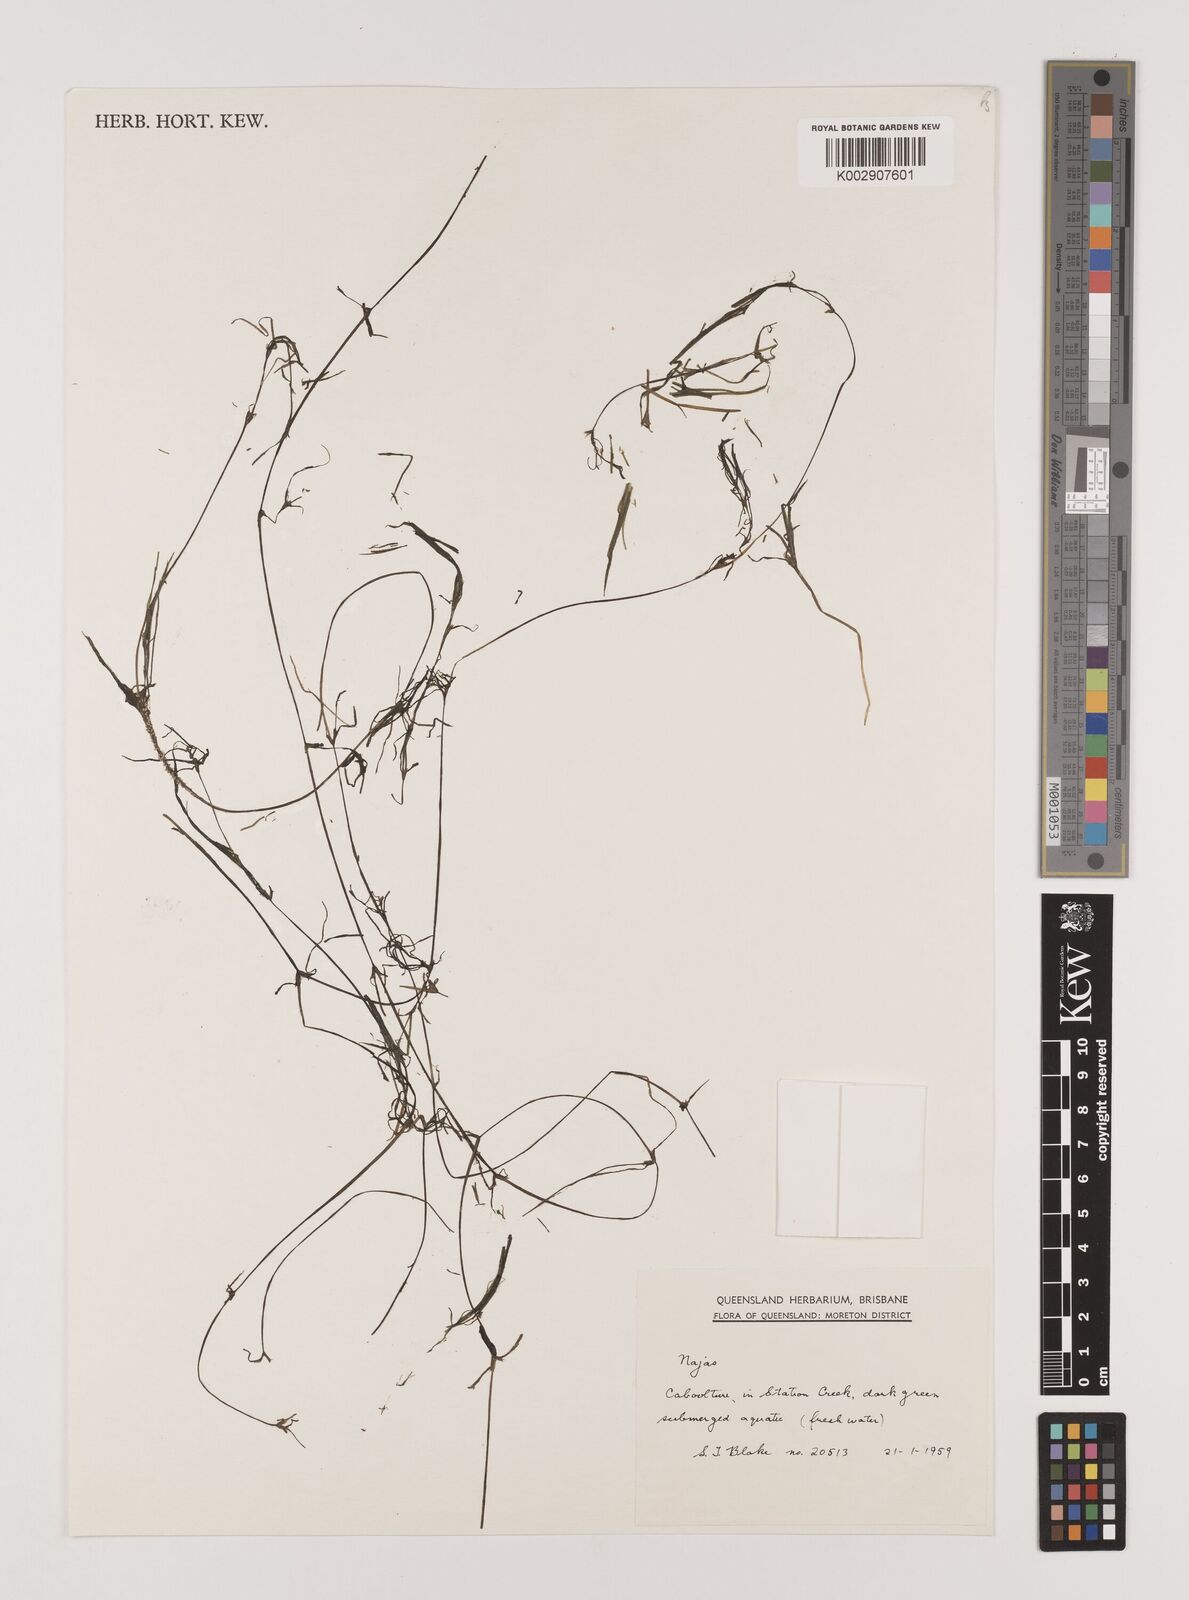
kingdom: Plantae
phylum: Tracheophyta
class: Liliopsida
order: Alismatales
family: Hydrocharitaceae
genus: Najas
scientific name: Najas
